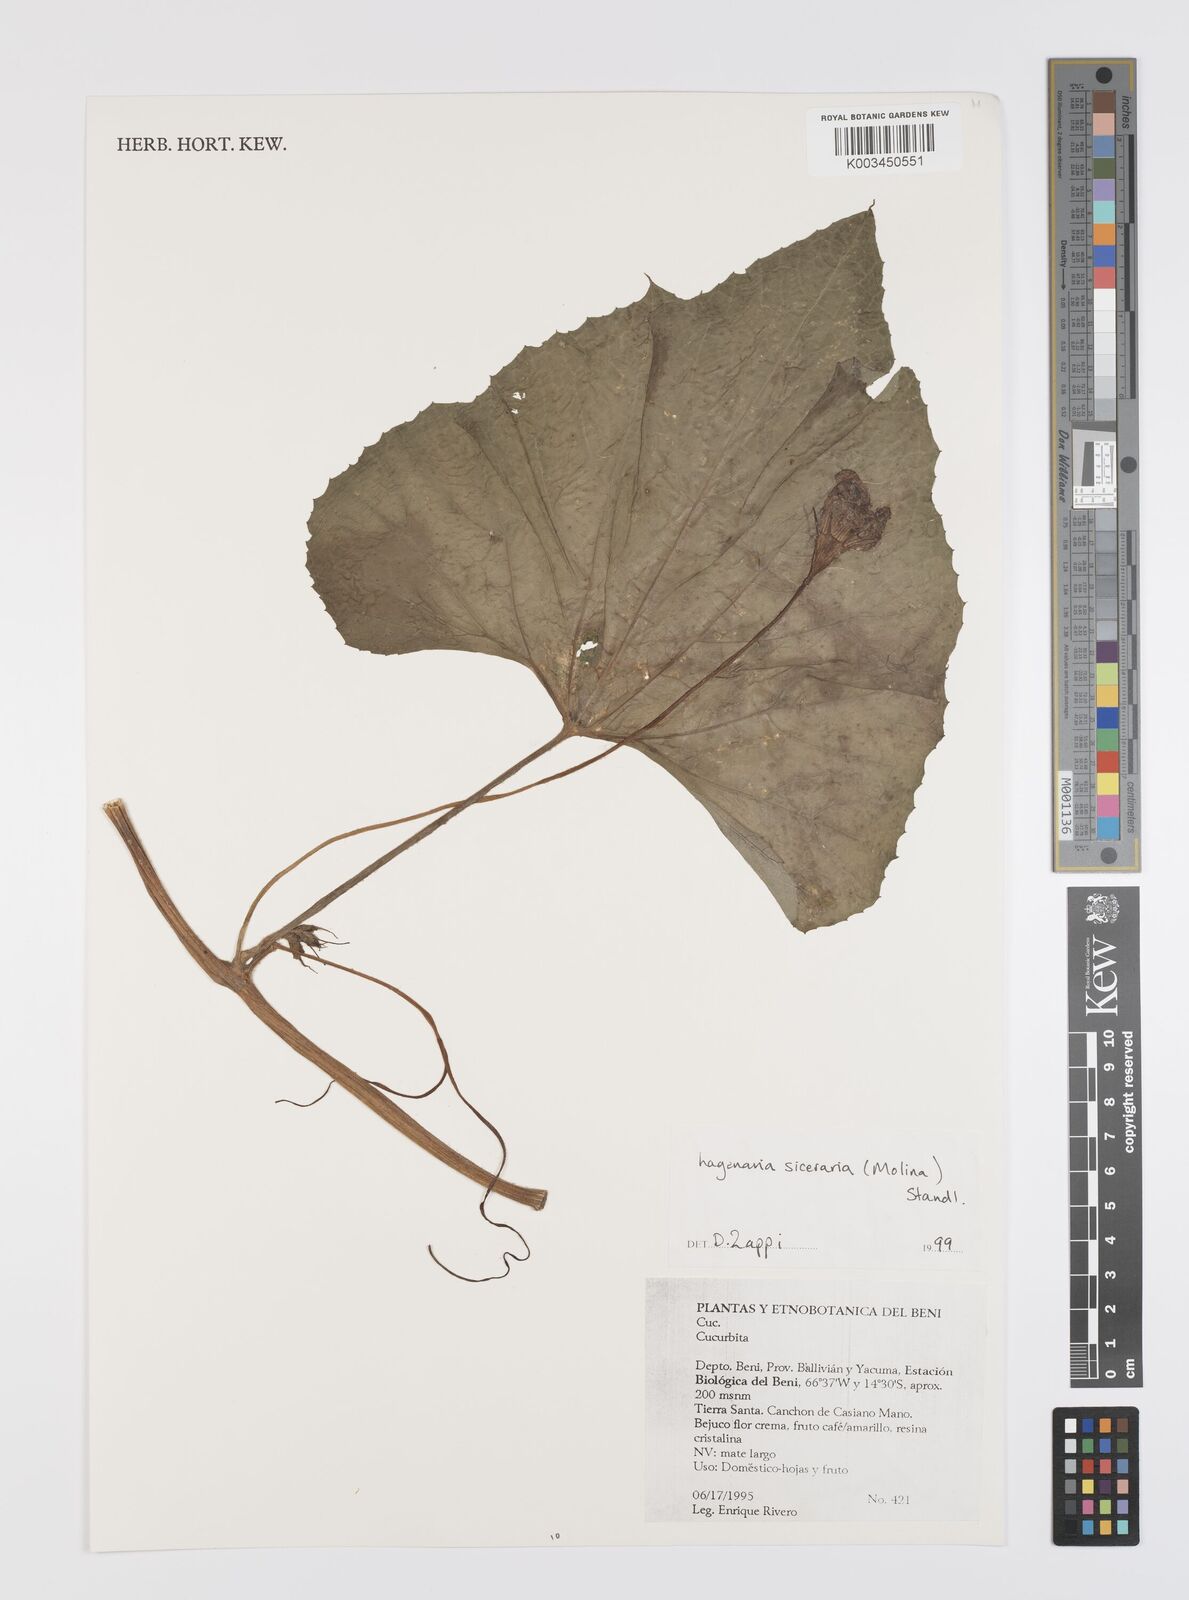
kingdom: Plantae
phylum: Tracheophyta
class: Magnoliopsida
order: Cucurbitales
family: Cucurbitaceae
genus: Lagenaria
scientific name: Lagenaria siceraria
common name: Bottle gourd
